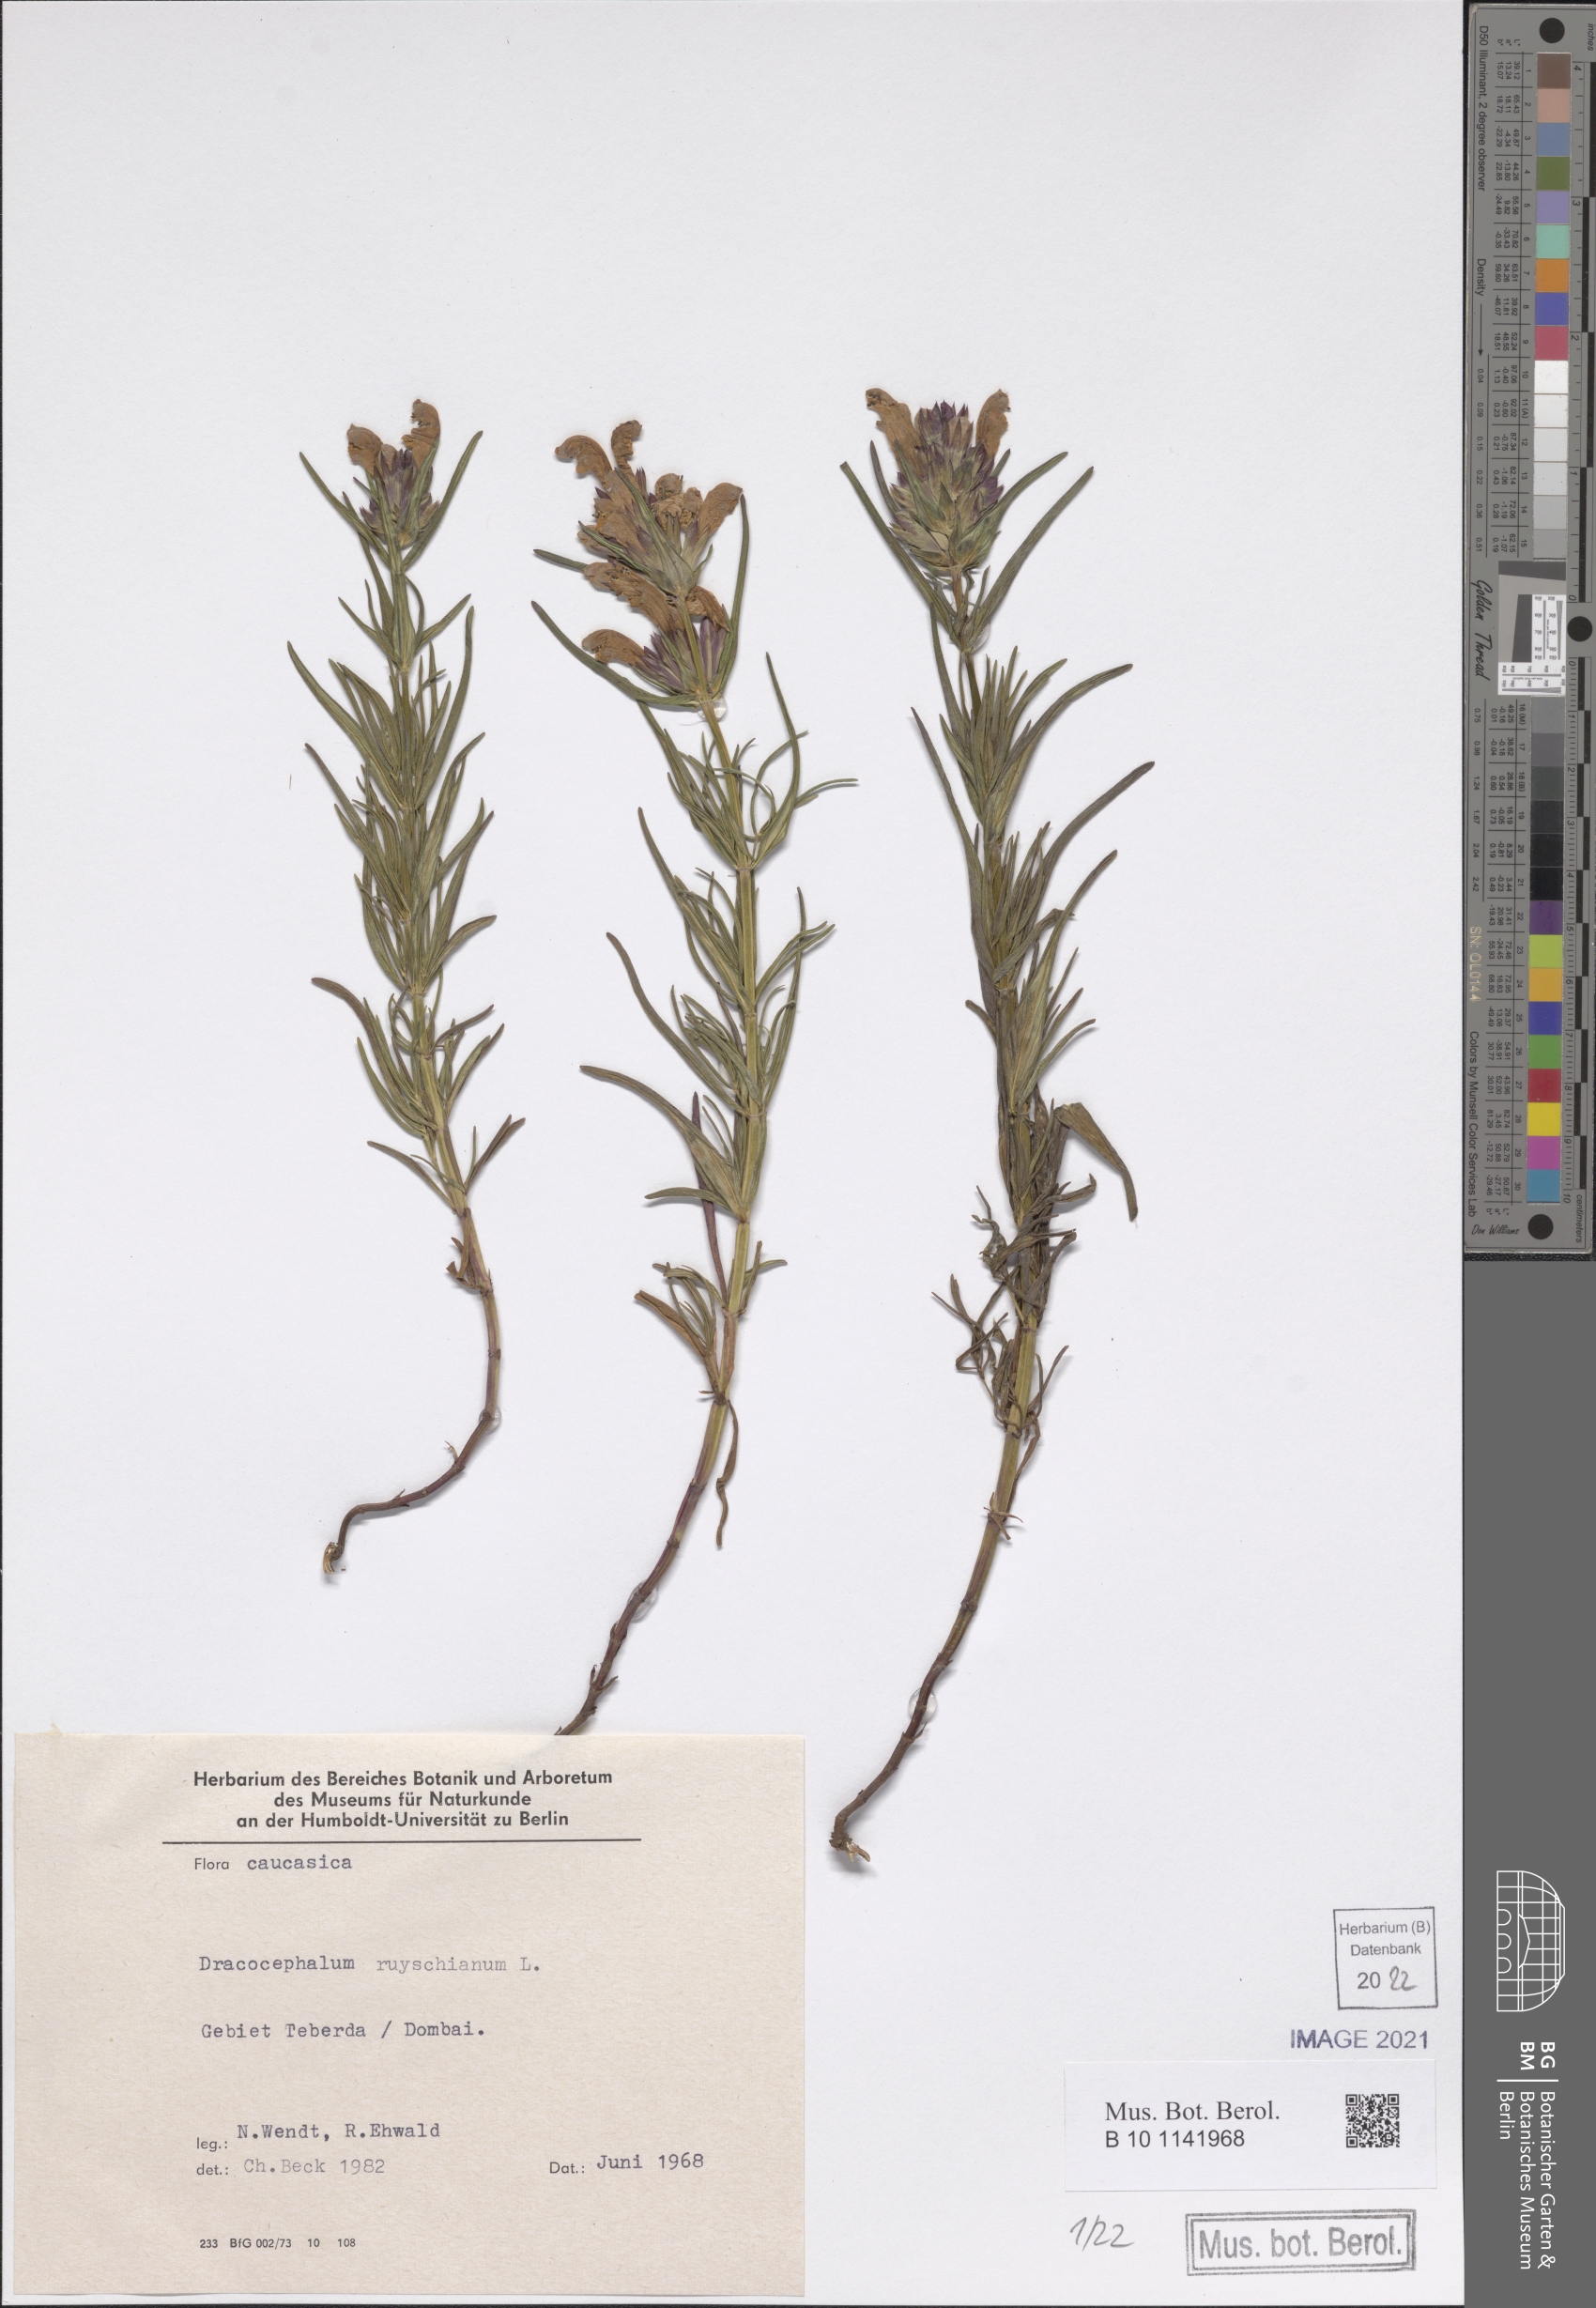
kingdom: Plantae
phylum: Tracheophyta
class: Magnoliopsida
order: Lamiales
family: Lamiaceae
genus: Dracocephalum
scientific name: Dracocephalum ruyschiana
